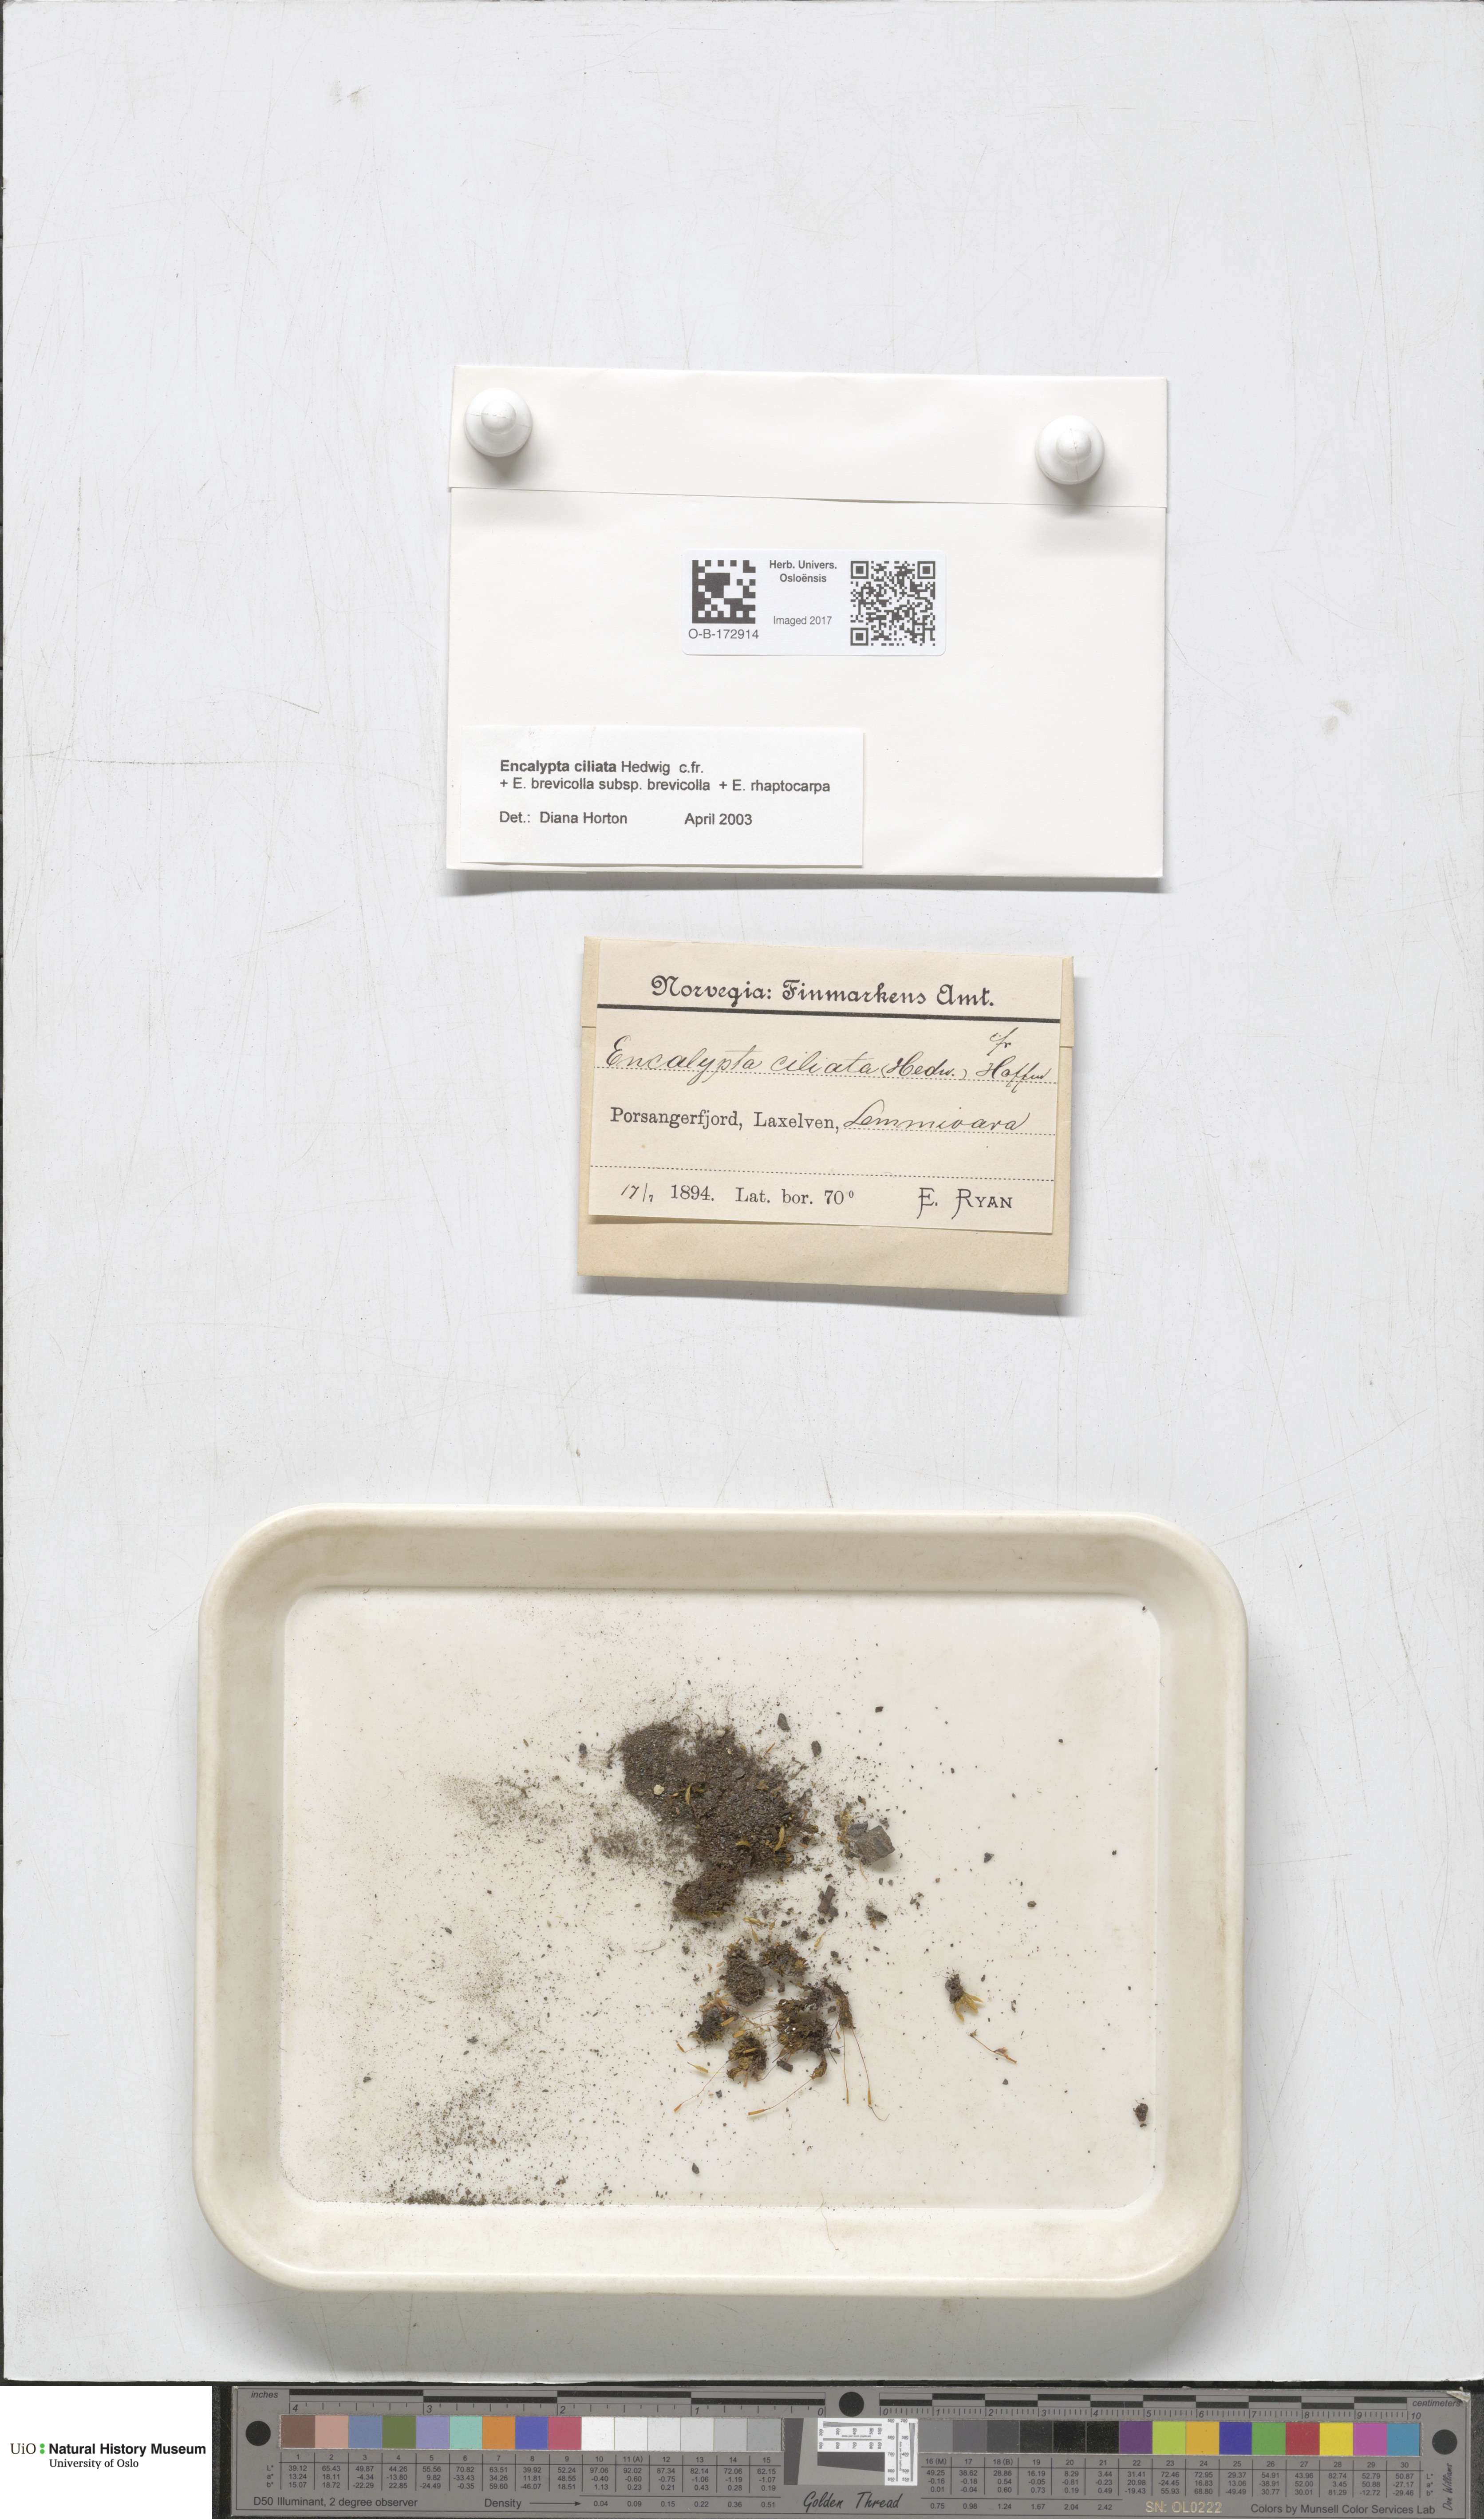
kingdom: Plantae
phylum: Bryophyta
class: Bryopsida
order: Encalyptales
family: Encalyptaceae
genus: Encalypta
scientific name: Encalypta ciliata
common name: Fringed extinguisher-moss
